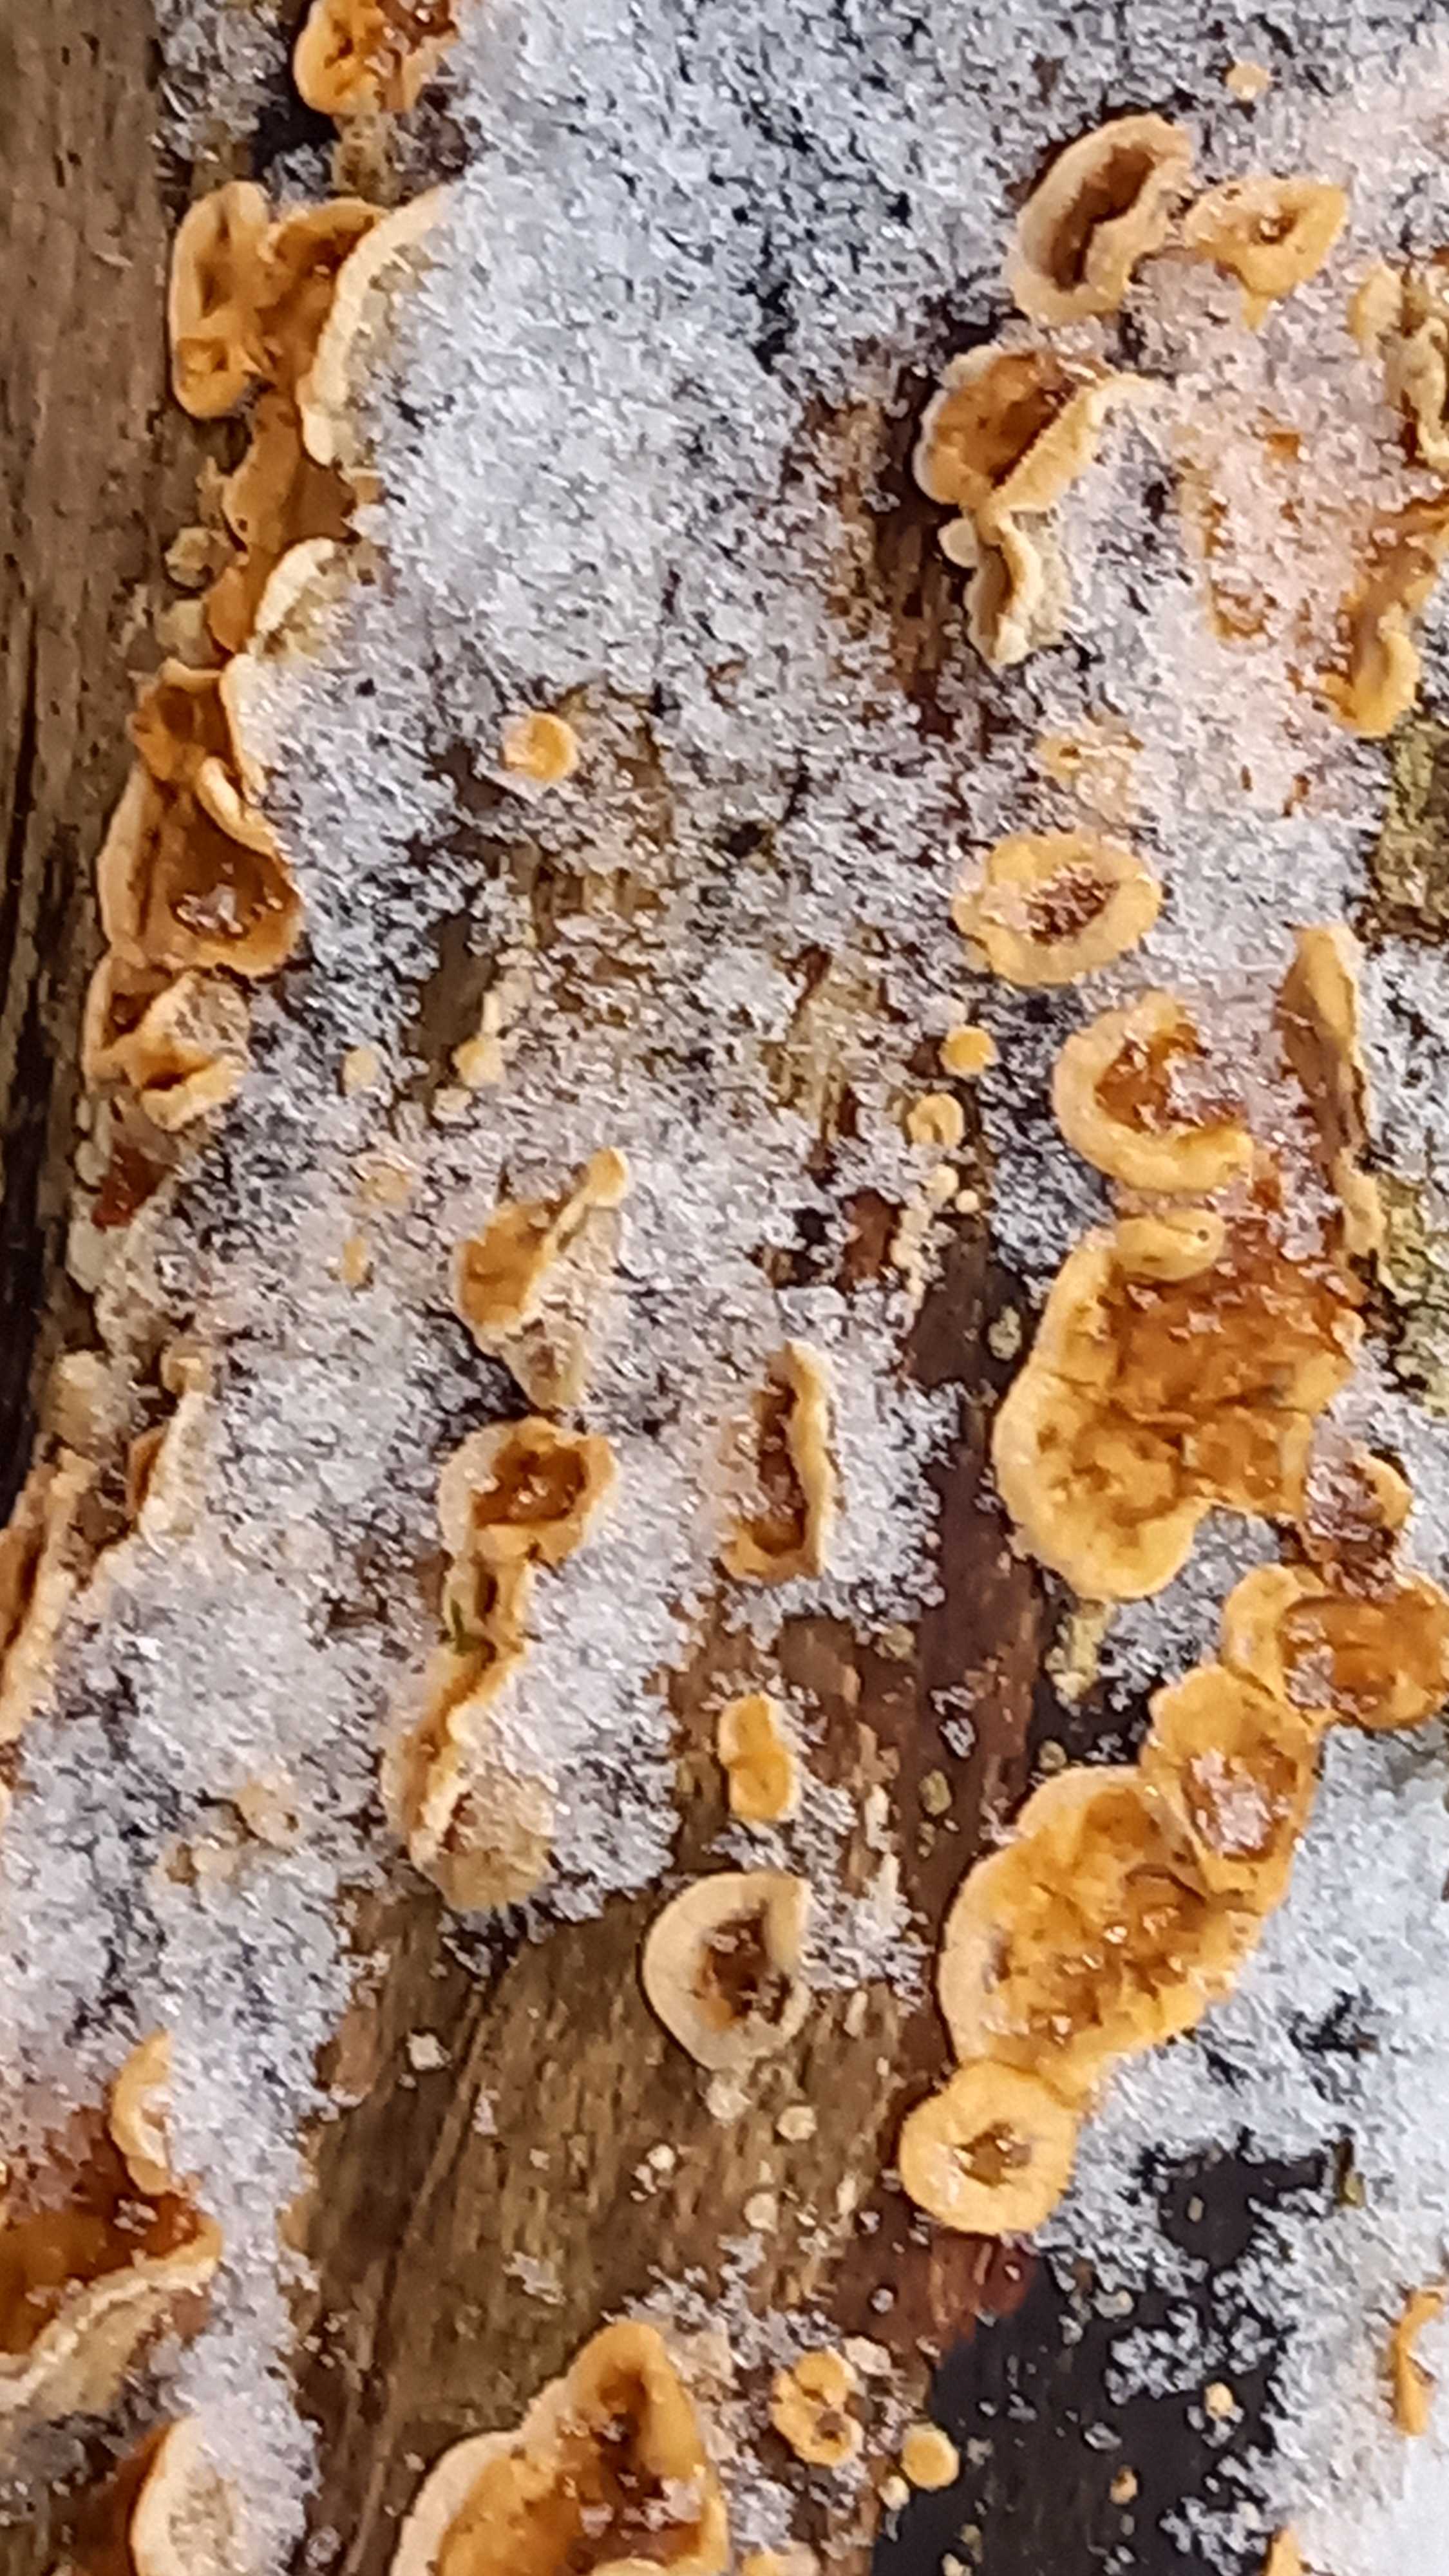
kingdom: Fungi
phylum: Basidiomycota
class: Agaricomycetes
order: Russulales
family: Stereaceae
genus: Stereum
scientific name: Stereum hirsutum
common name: håret lædersvamp
